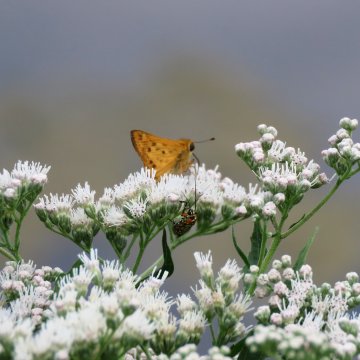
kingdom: Animalia
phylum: Arthropoda
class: Insecta
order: Lepidoptera
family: Hesperiidae
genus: Hylephila
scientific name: Hylephila phyleus
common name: Fiery Skipper
